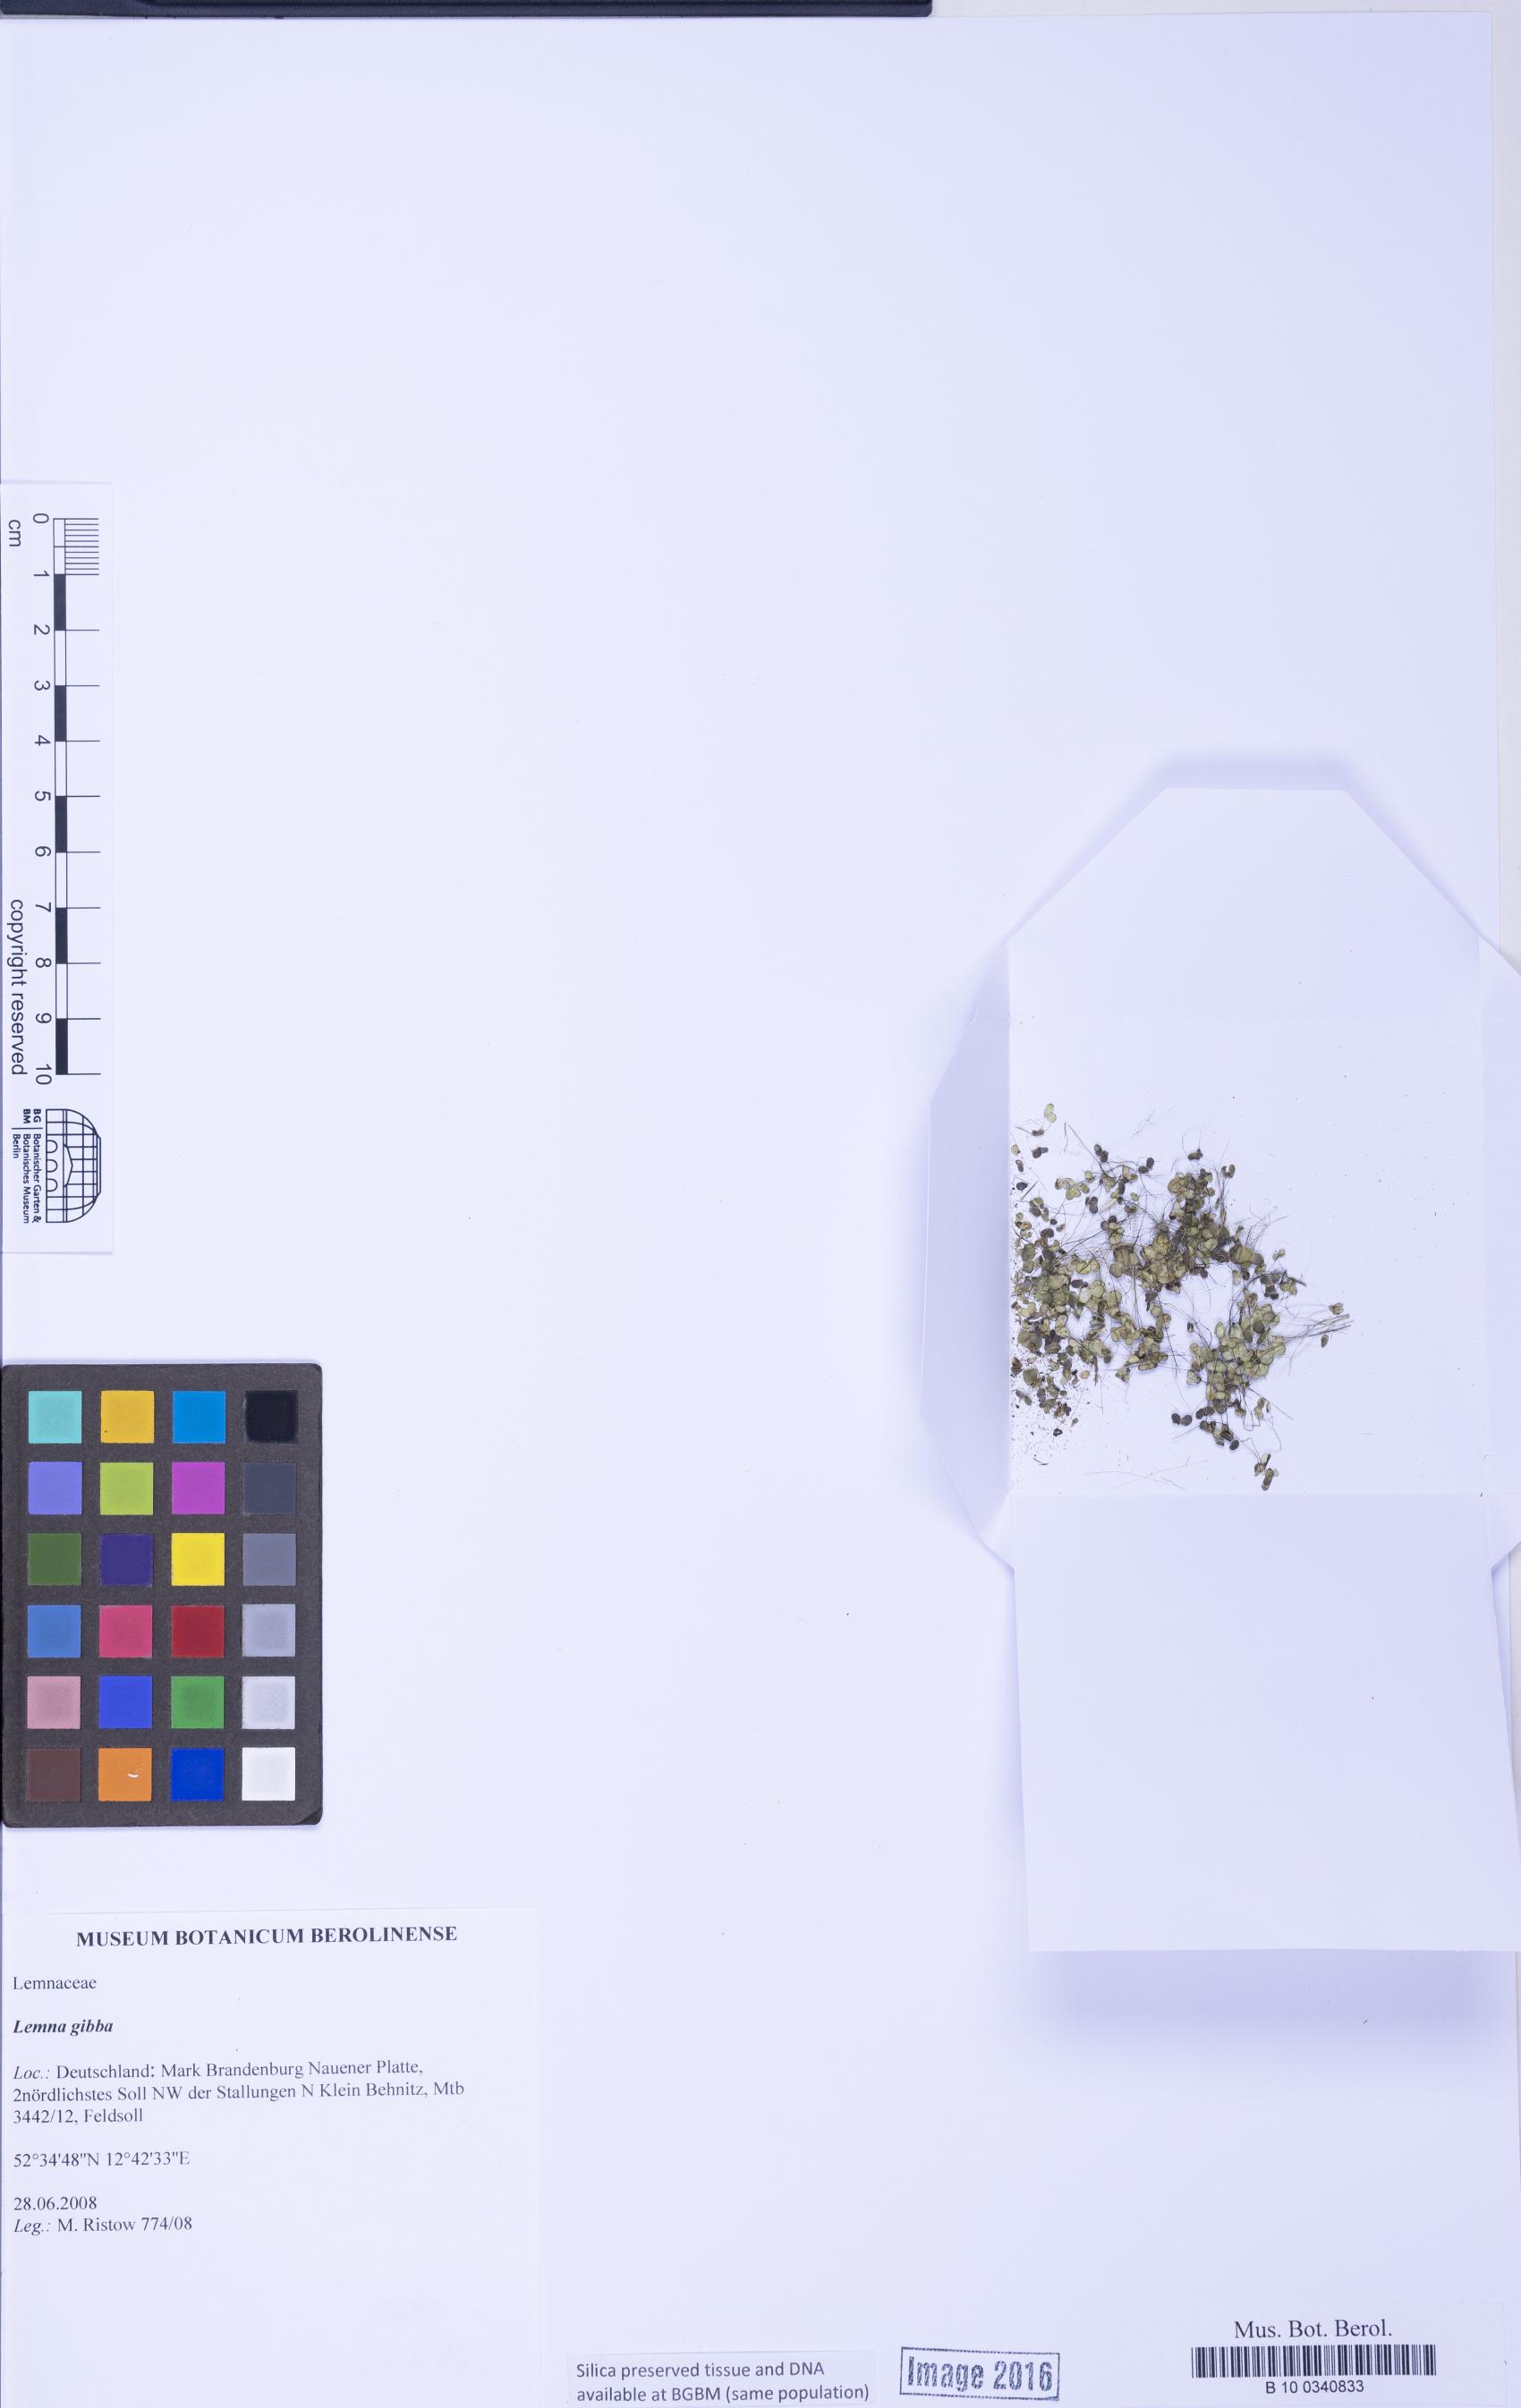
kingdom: Plantae
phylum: Tracheophyta
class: Liliopsida
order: Alismatales
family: Araceae
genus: Lemna
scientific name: Lemna gibba
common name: Fat duckweed
